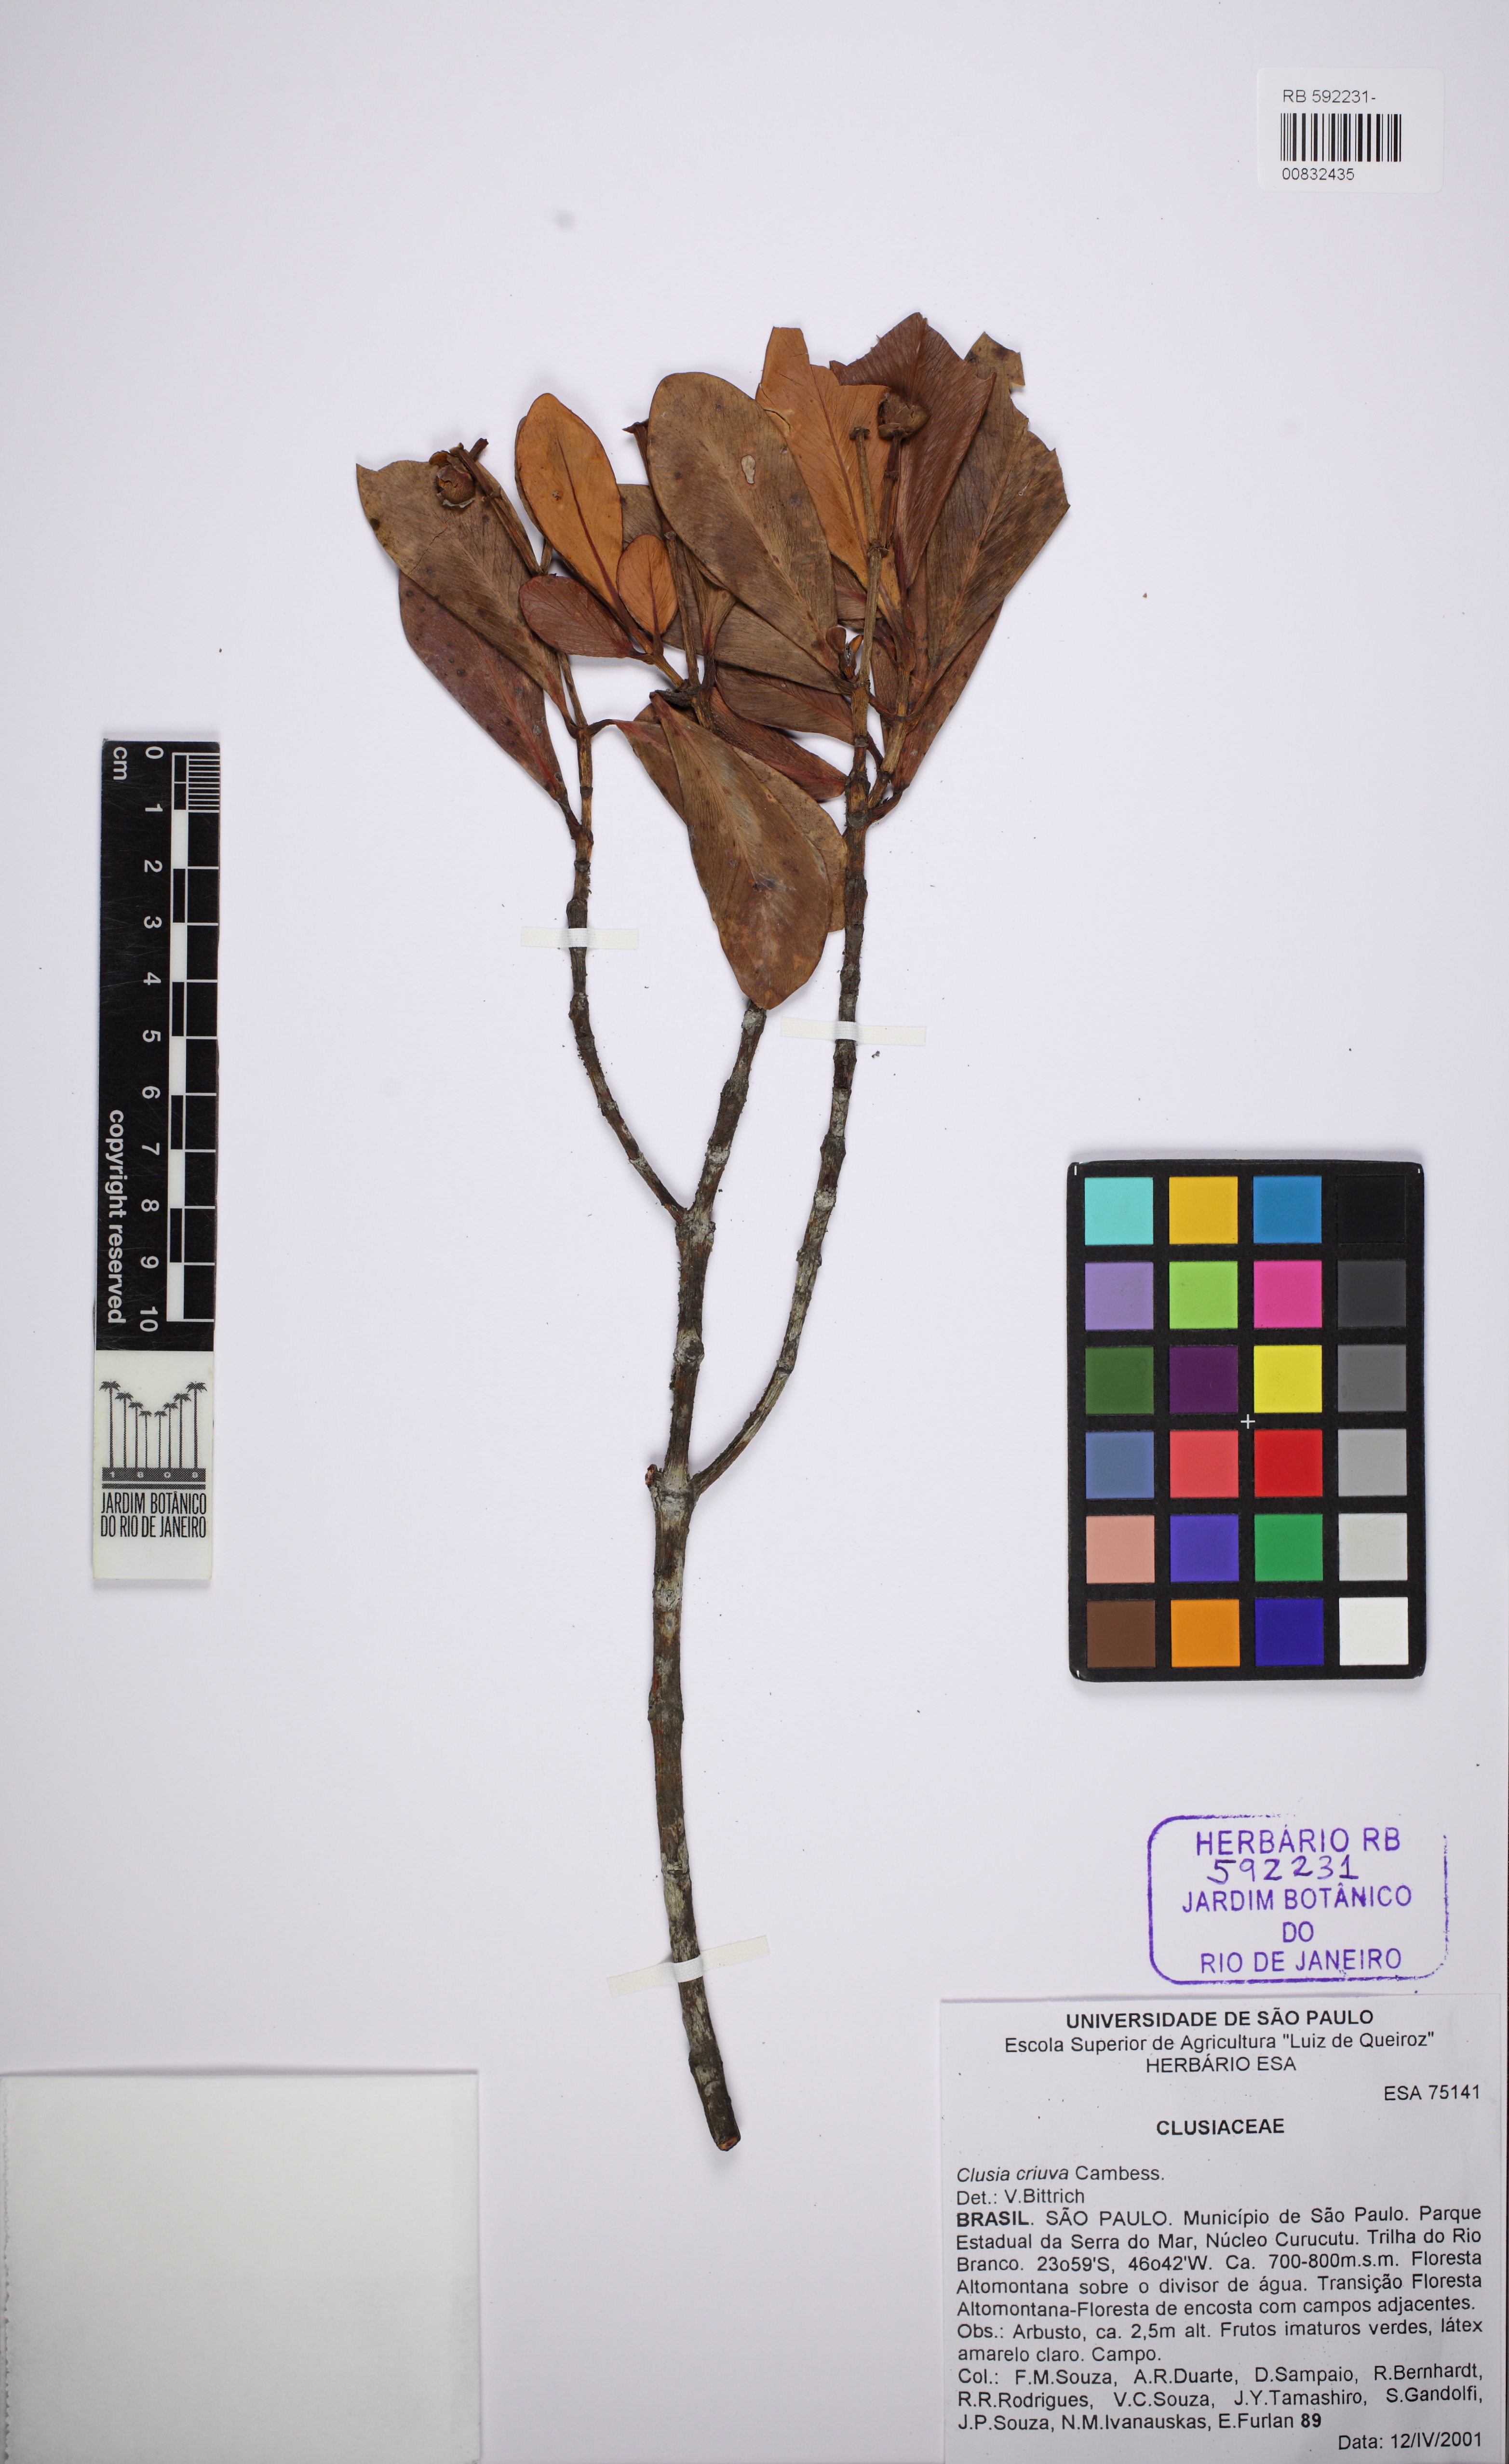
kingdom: Plantae
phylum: Tracheophyta
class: Magnoliopsida
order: Malpighiales
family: Clusiaceae
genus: Clusia
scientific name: Clusia criuva
